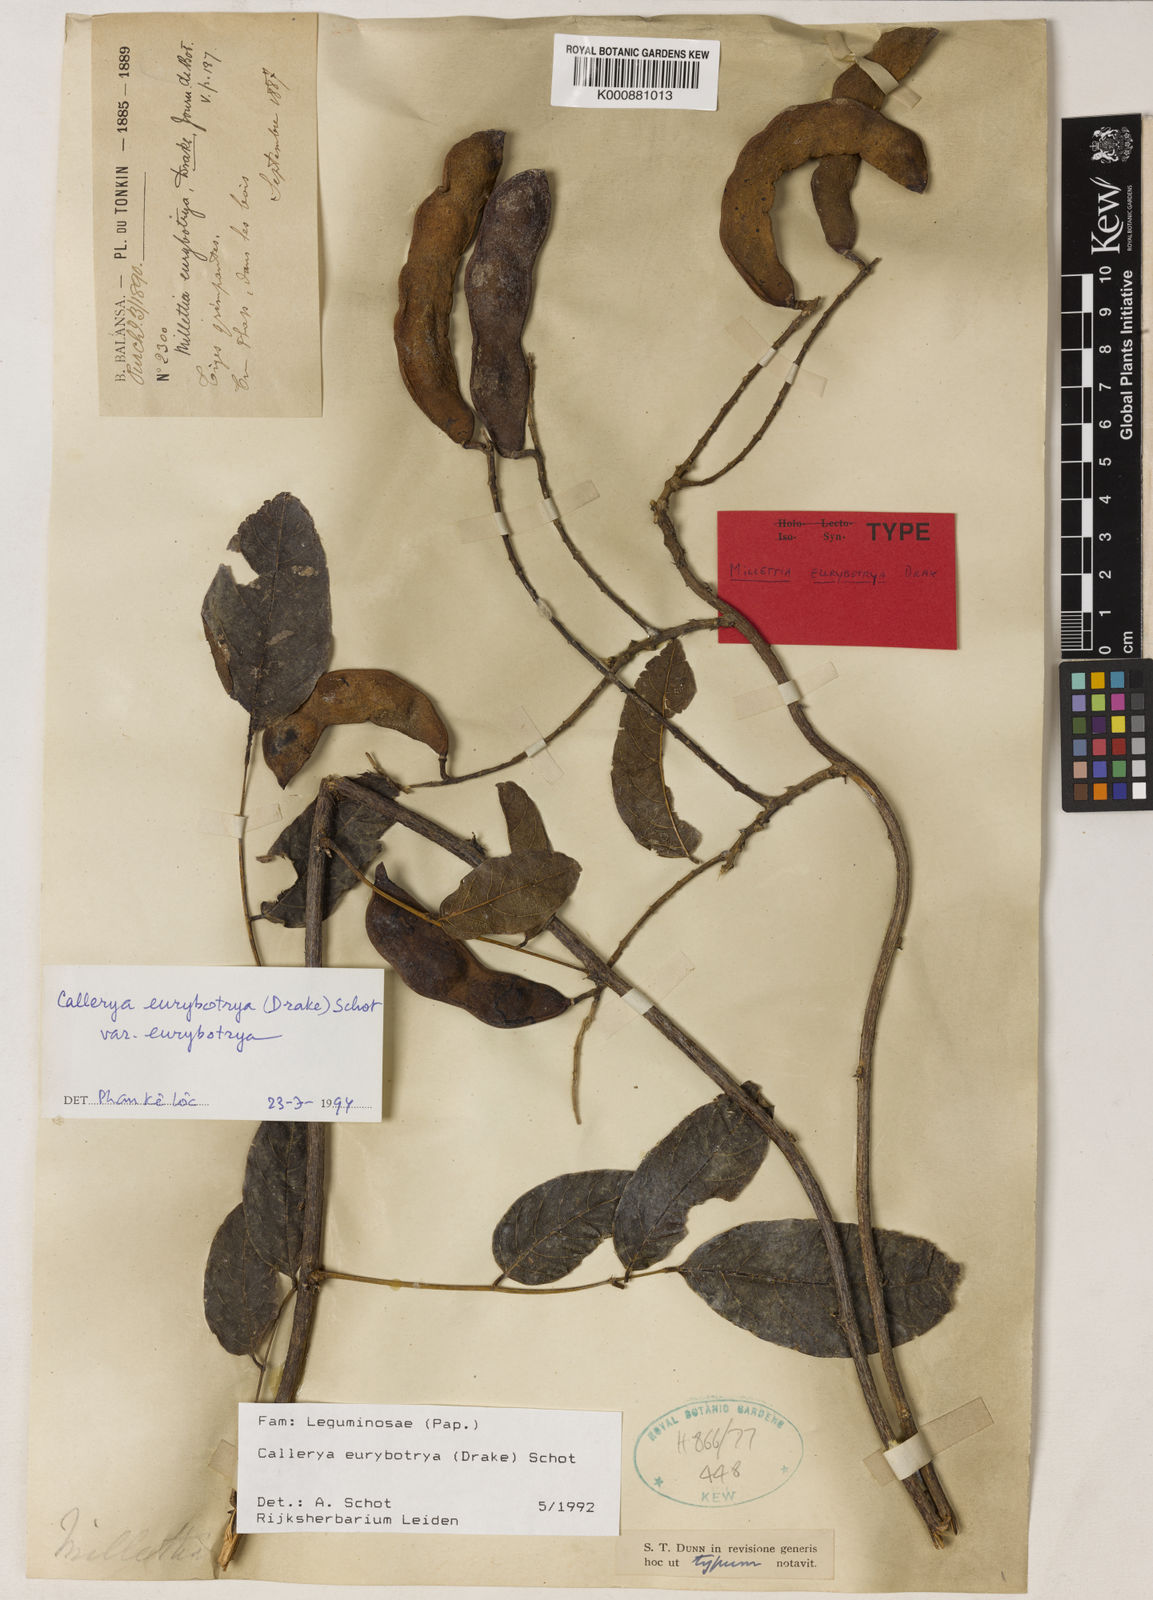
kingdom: Plantae
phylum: Tracheophyta
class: Magnoliopsida
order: Fabales
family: Fabaceae
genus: Wisteriopsis
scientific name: Wisteriopsis eurybotrya
